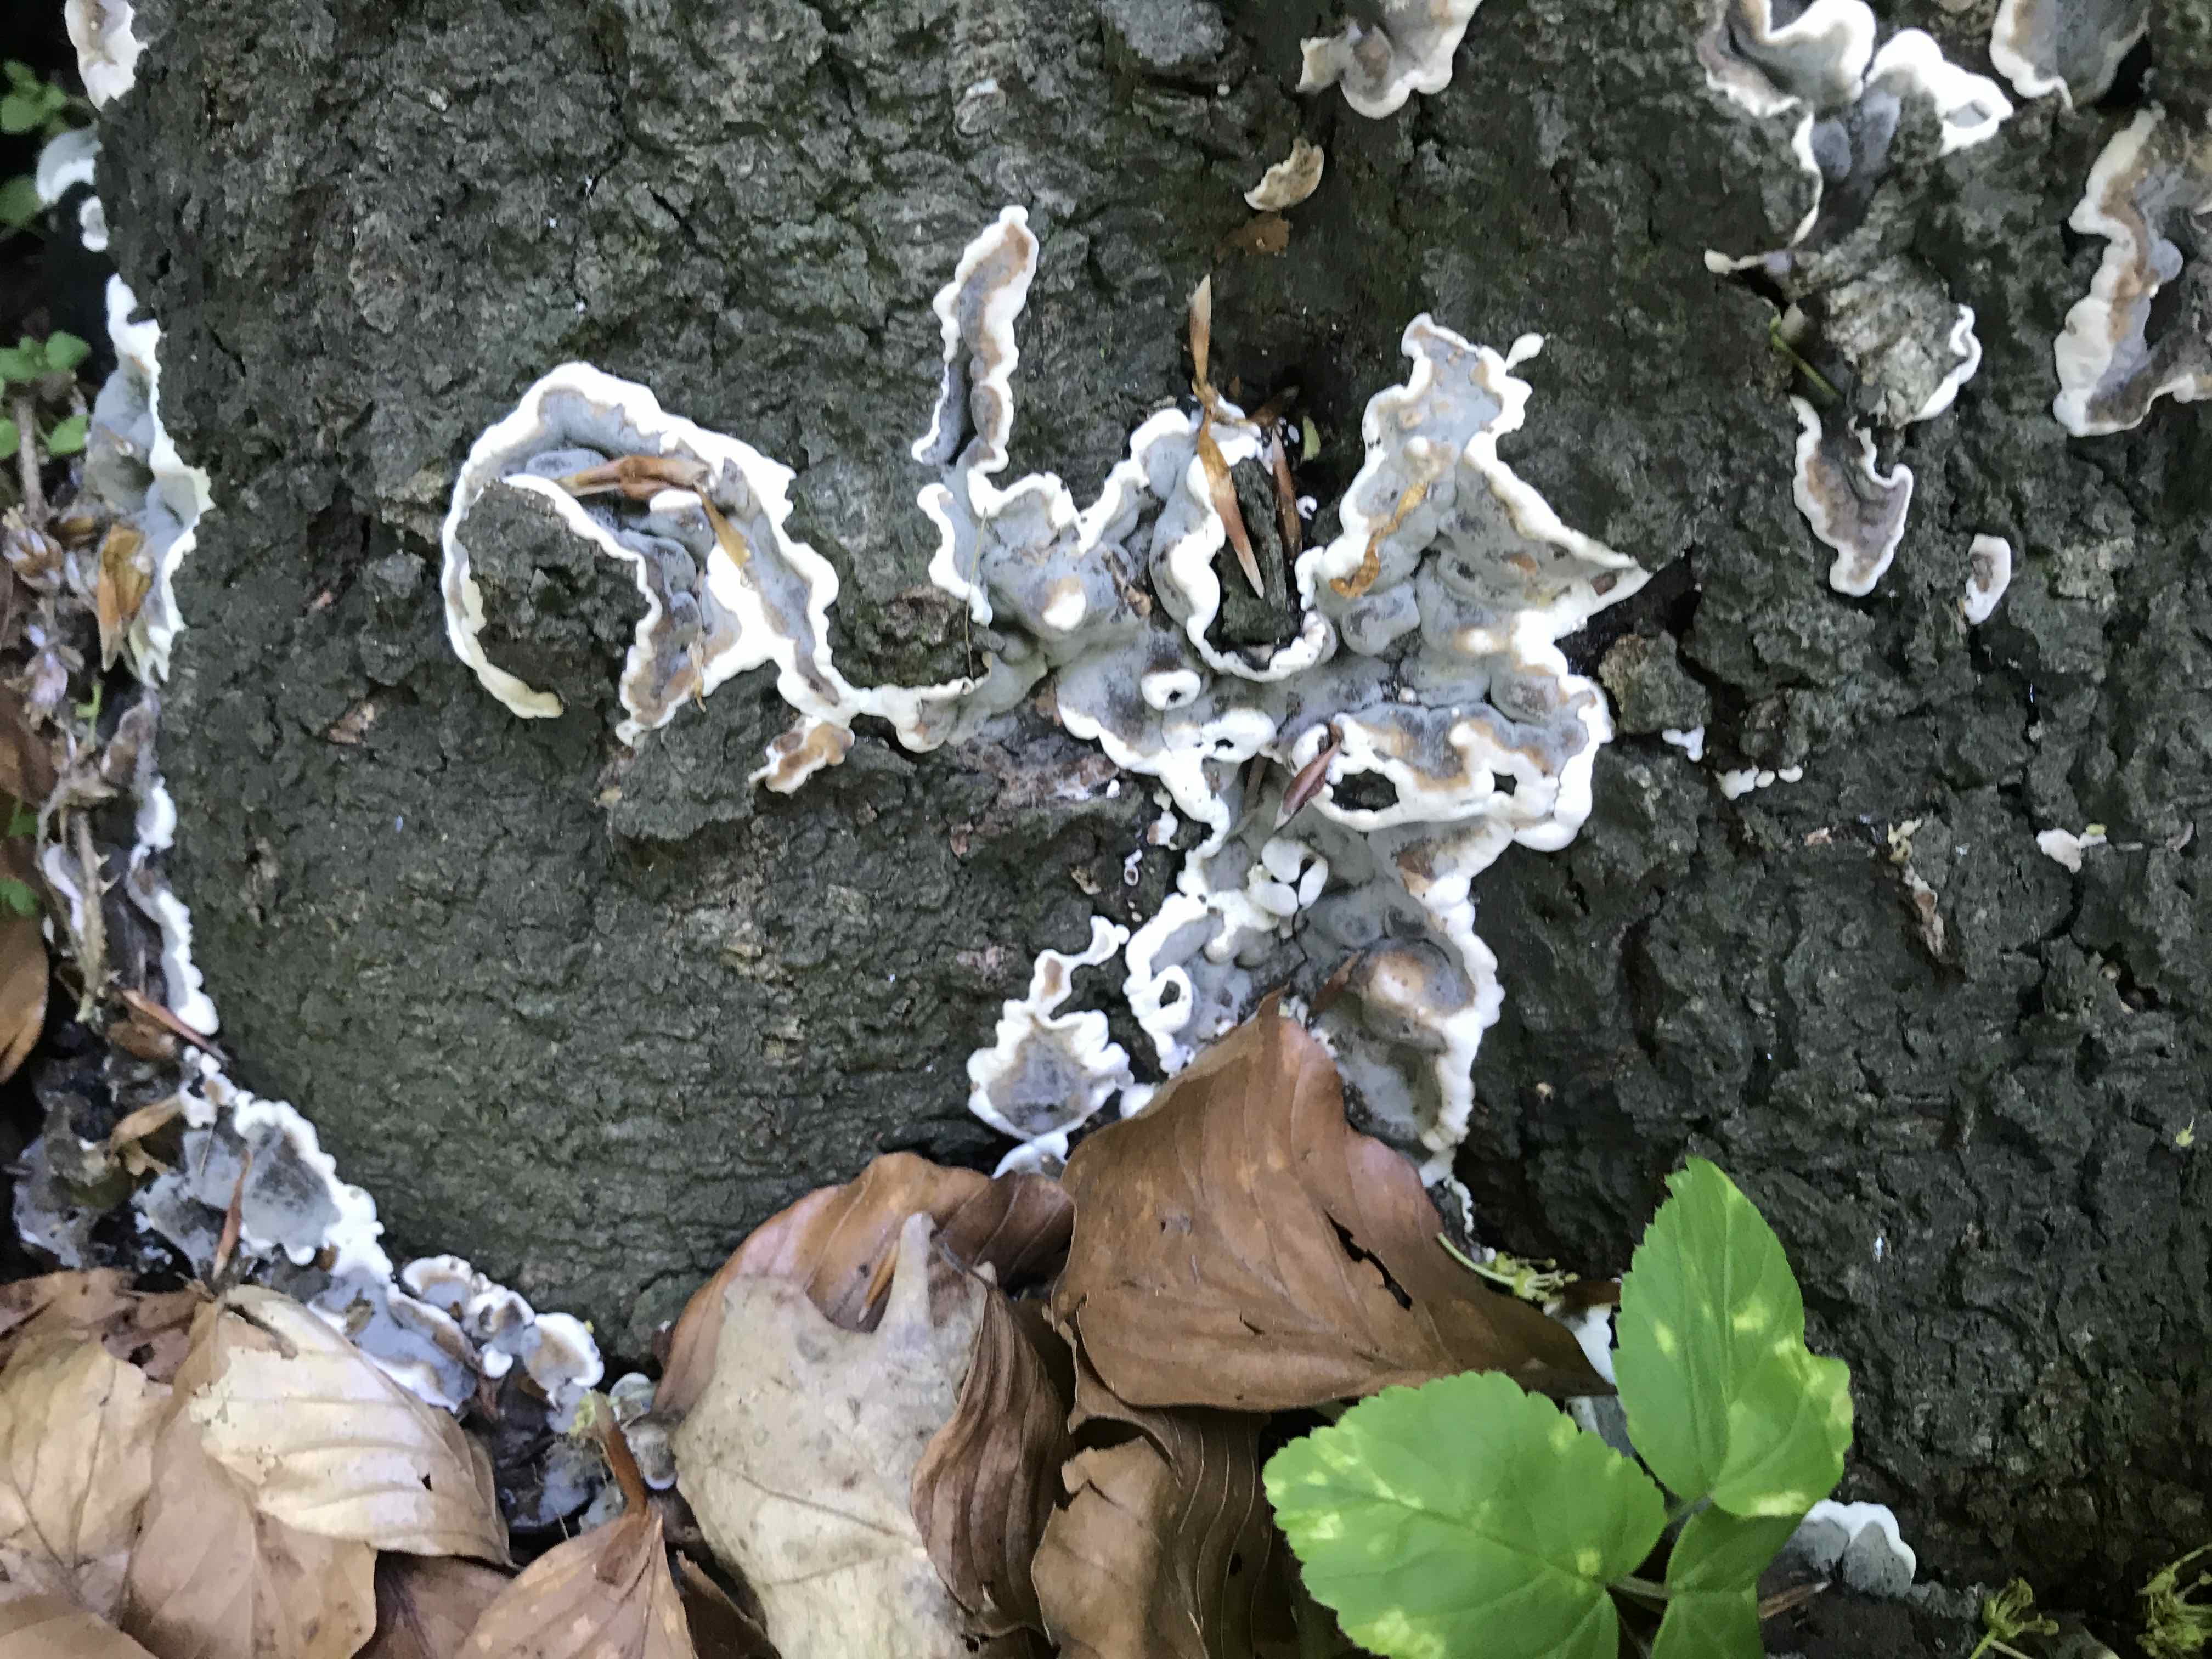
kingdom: Fungi
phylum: Ascomycota
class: Sordariomycetes
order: Xylariales
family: Xylariaceae
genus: Kretzschmaria
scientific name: Kretzschmaria deusta
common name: stor kulsvamp
